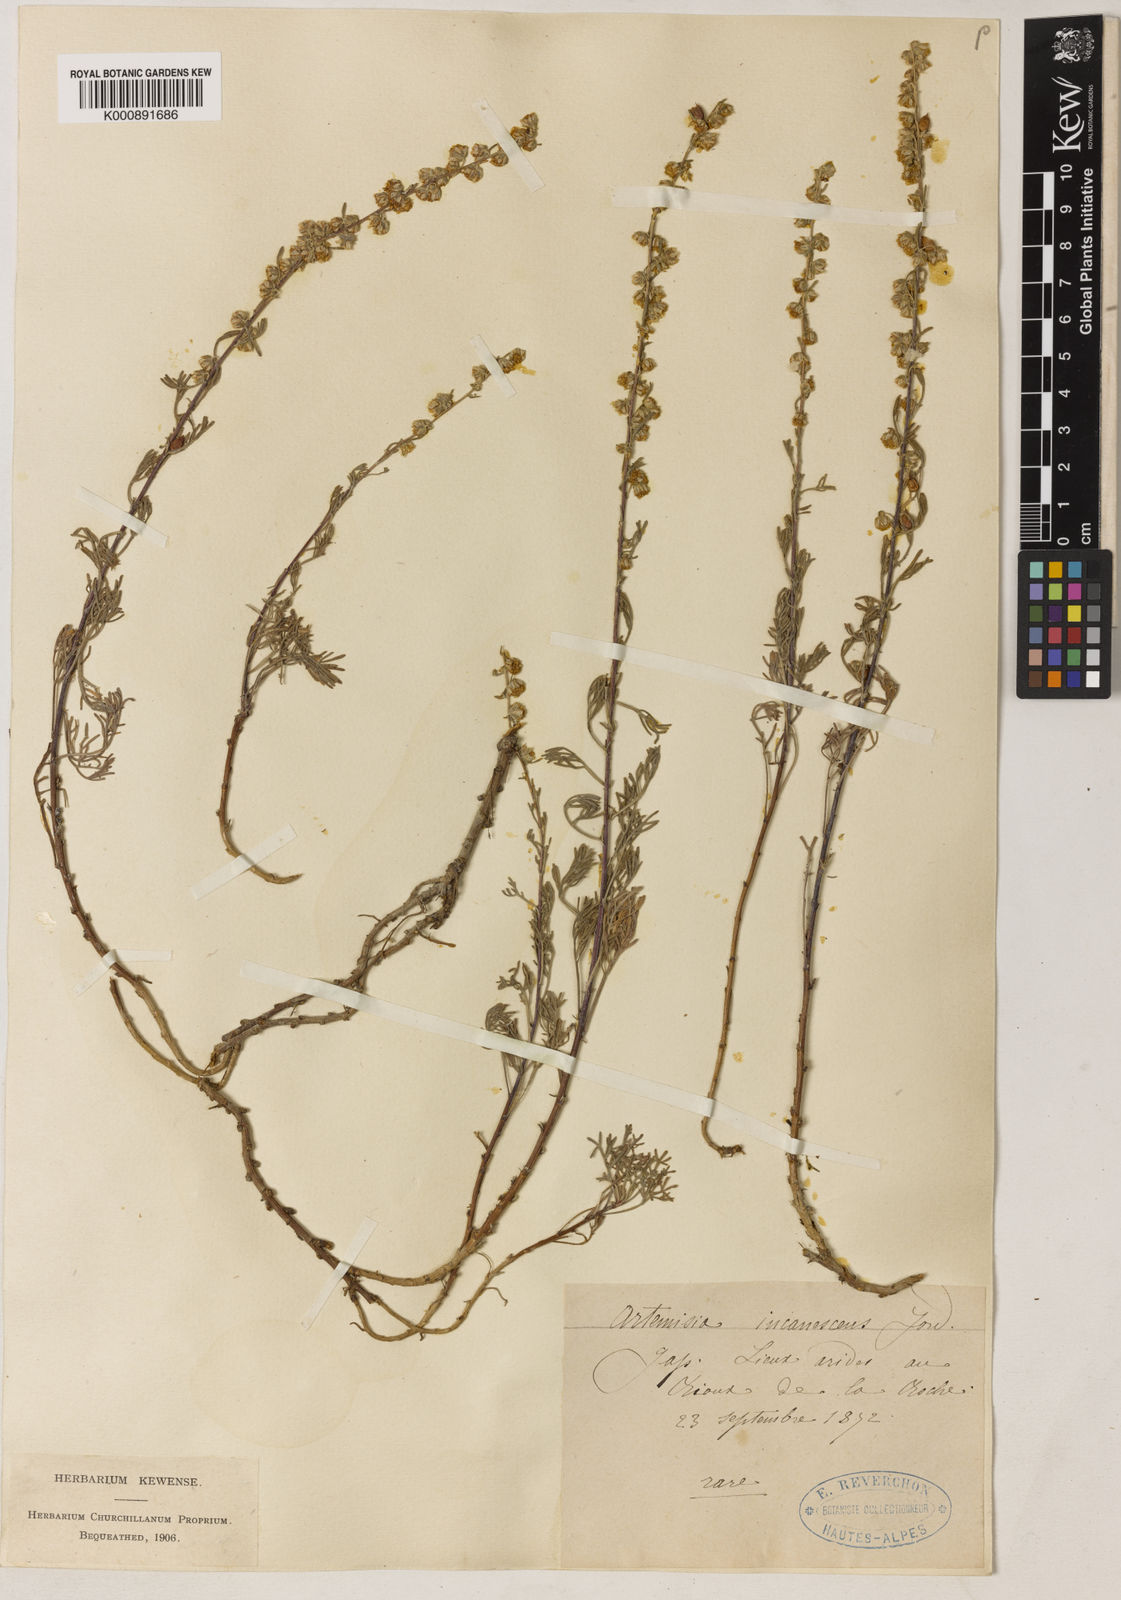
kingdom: Plantae
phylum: Tracheophyta
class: Magnoliopsida
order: Asterales
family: Asteraceae
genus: Artemisia
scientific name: Artemisia alba
